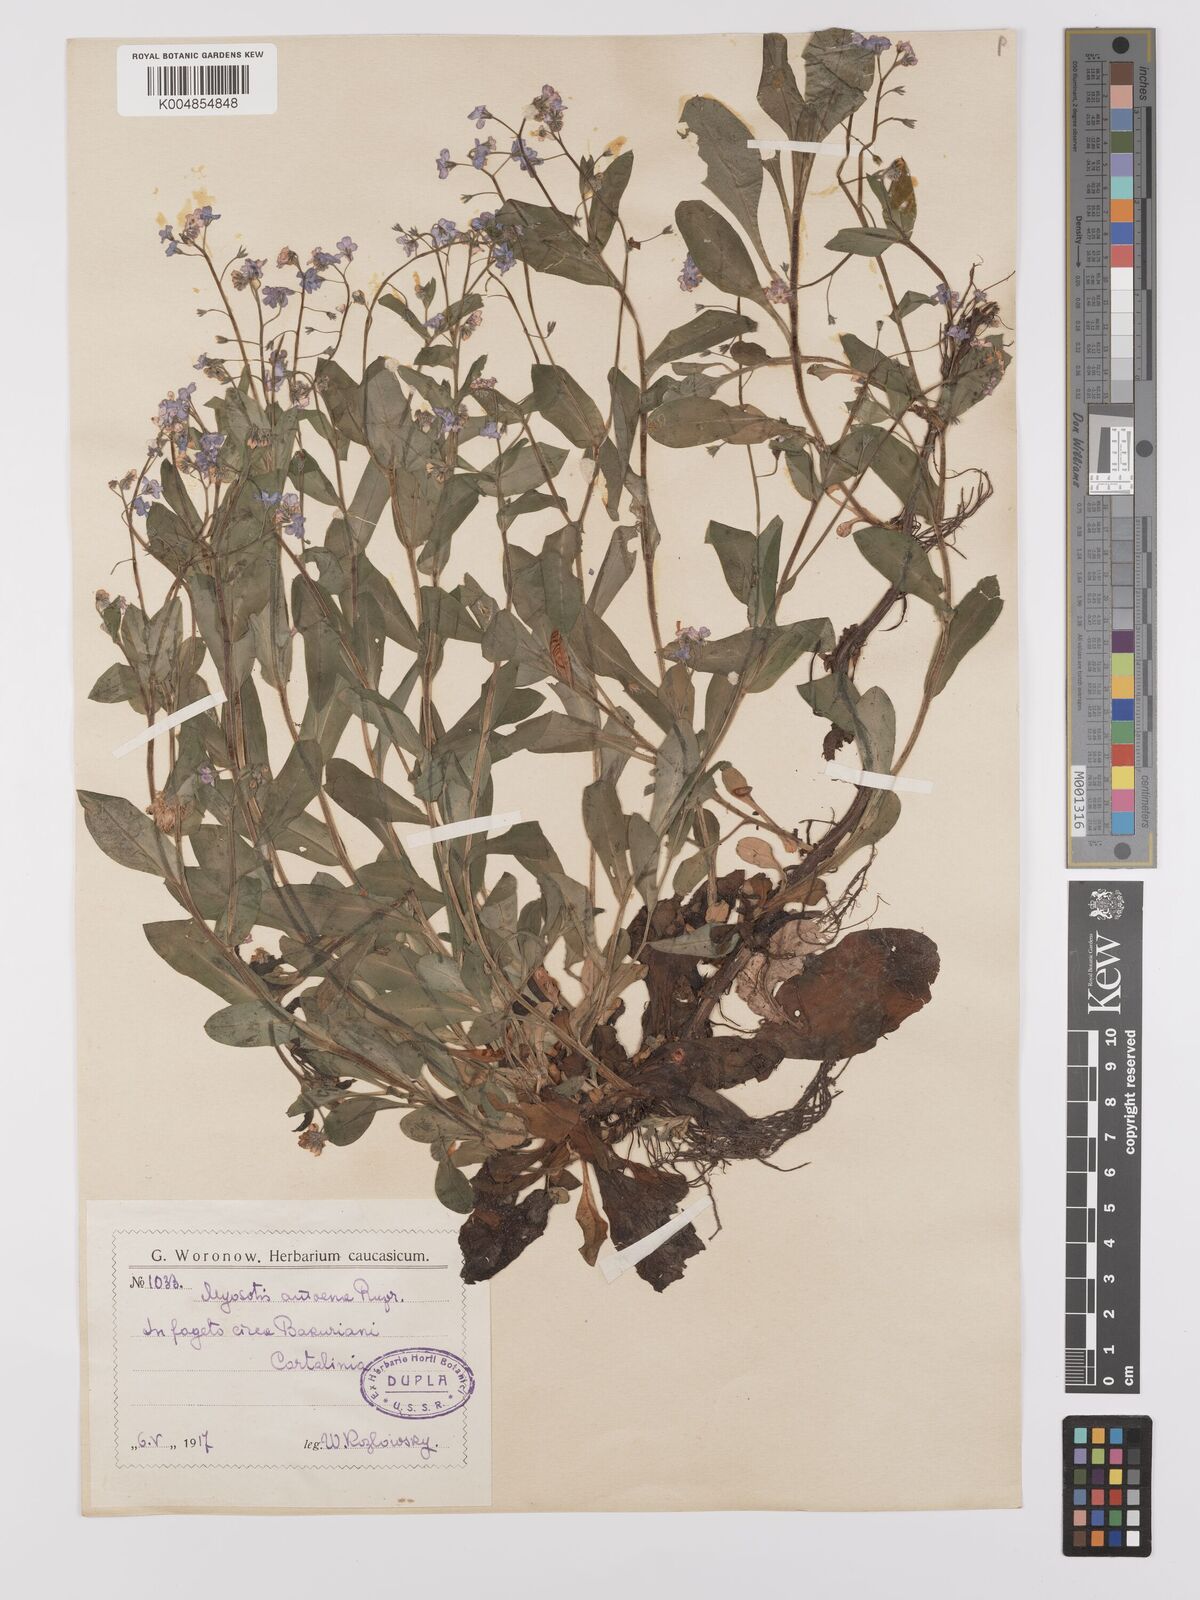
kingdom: Plantae
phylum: Tracheophyta
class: Magnoliopsida
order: Boraginales
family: Boraginaceae
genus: Myosotis
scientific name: Myosotis
